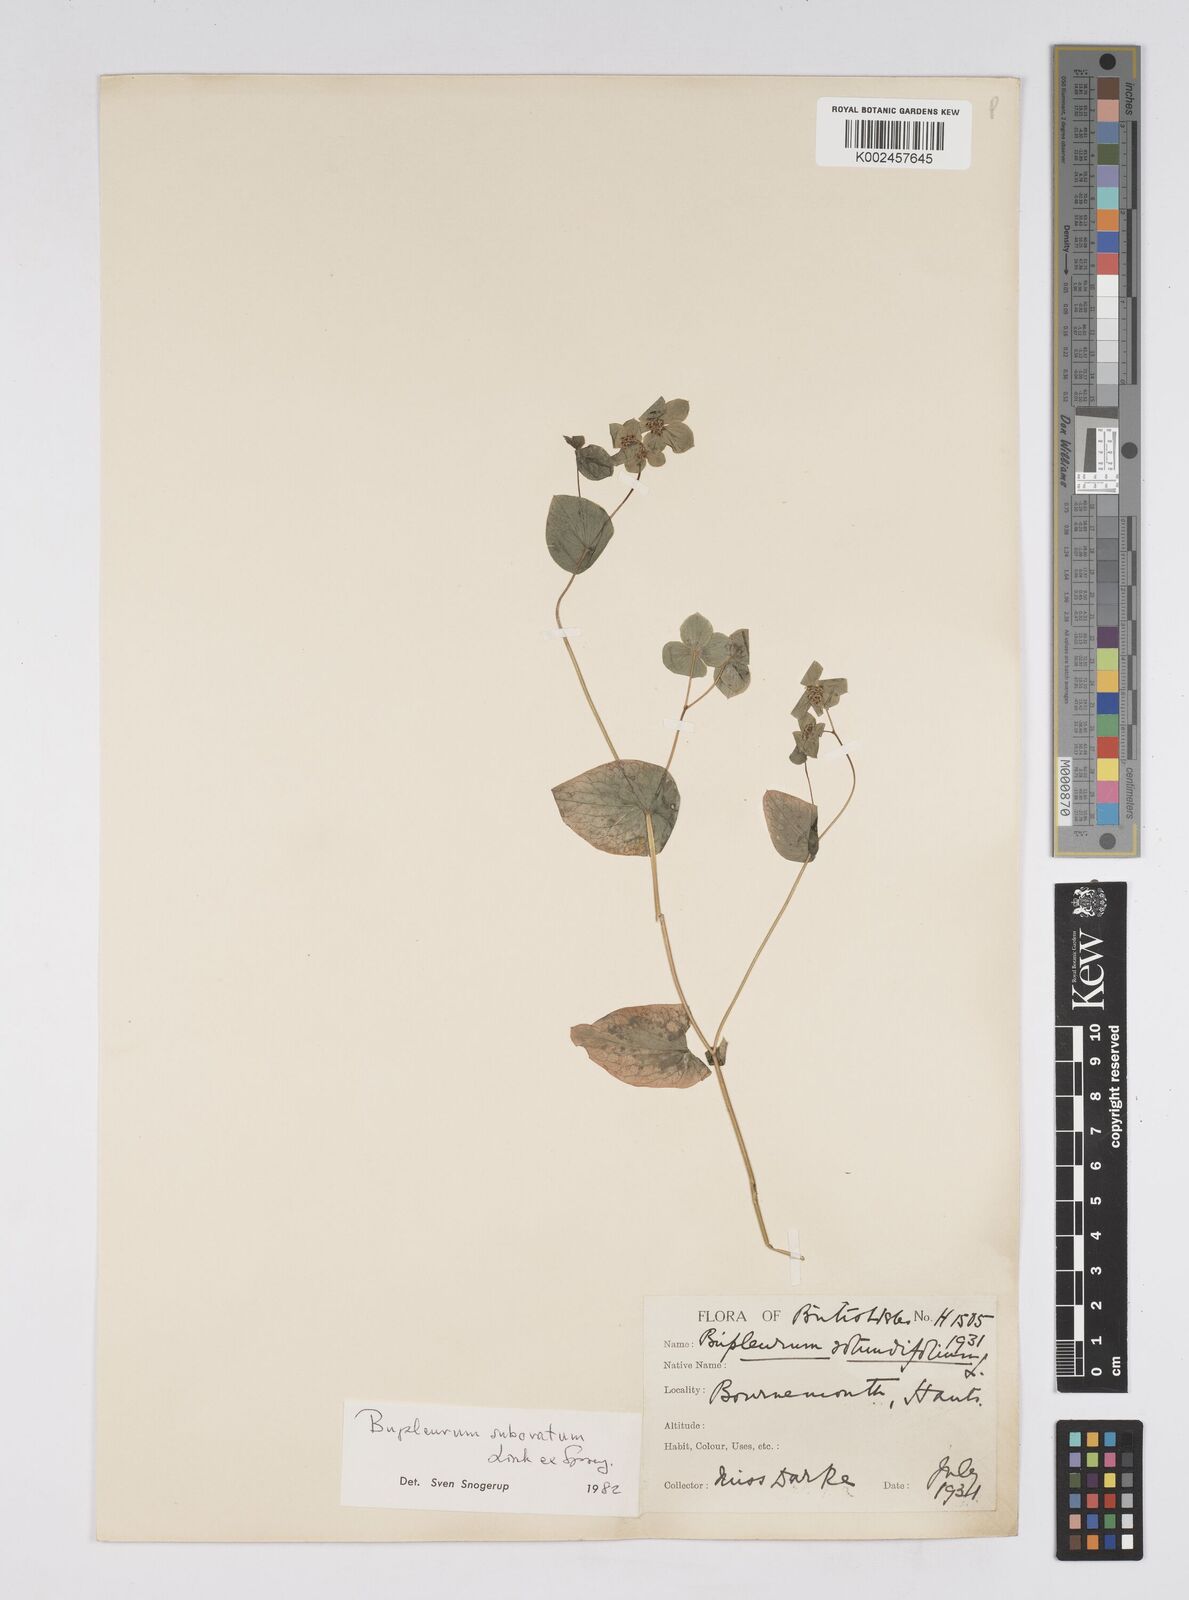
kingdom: Plantae
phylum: Tracheophyta
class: Magnoliopsida
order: Apiales
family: Apiaceae
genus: Bupleurum
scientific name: Bupleurum subovatum
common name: False thorow-wax
